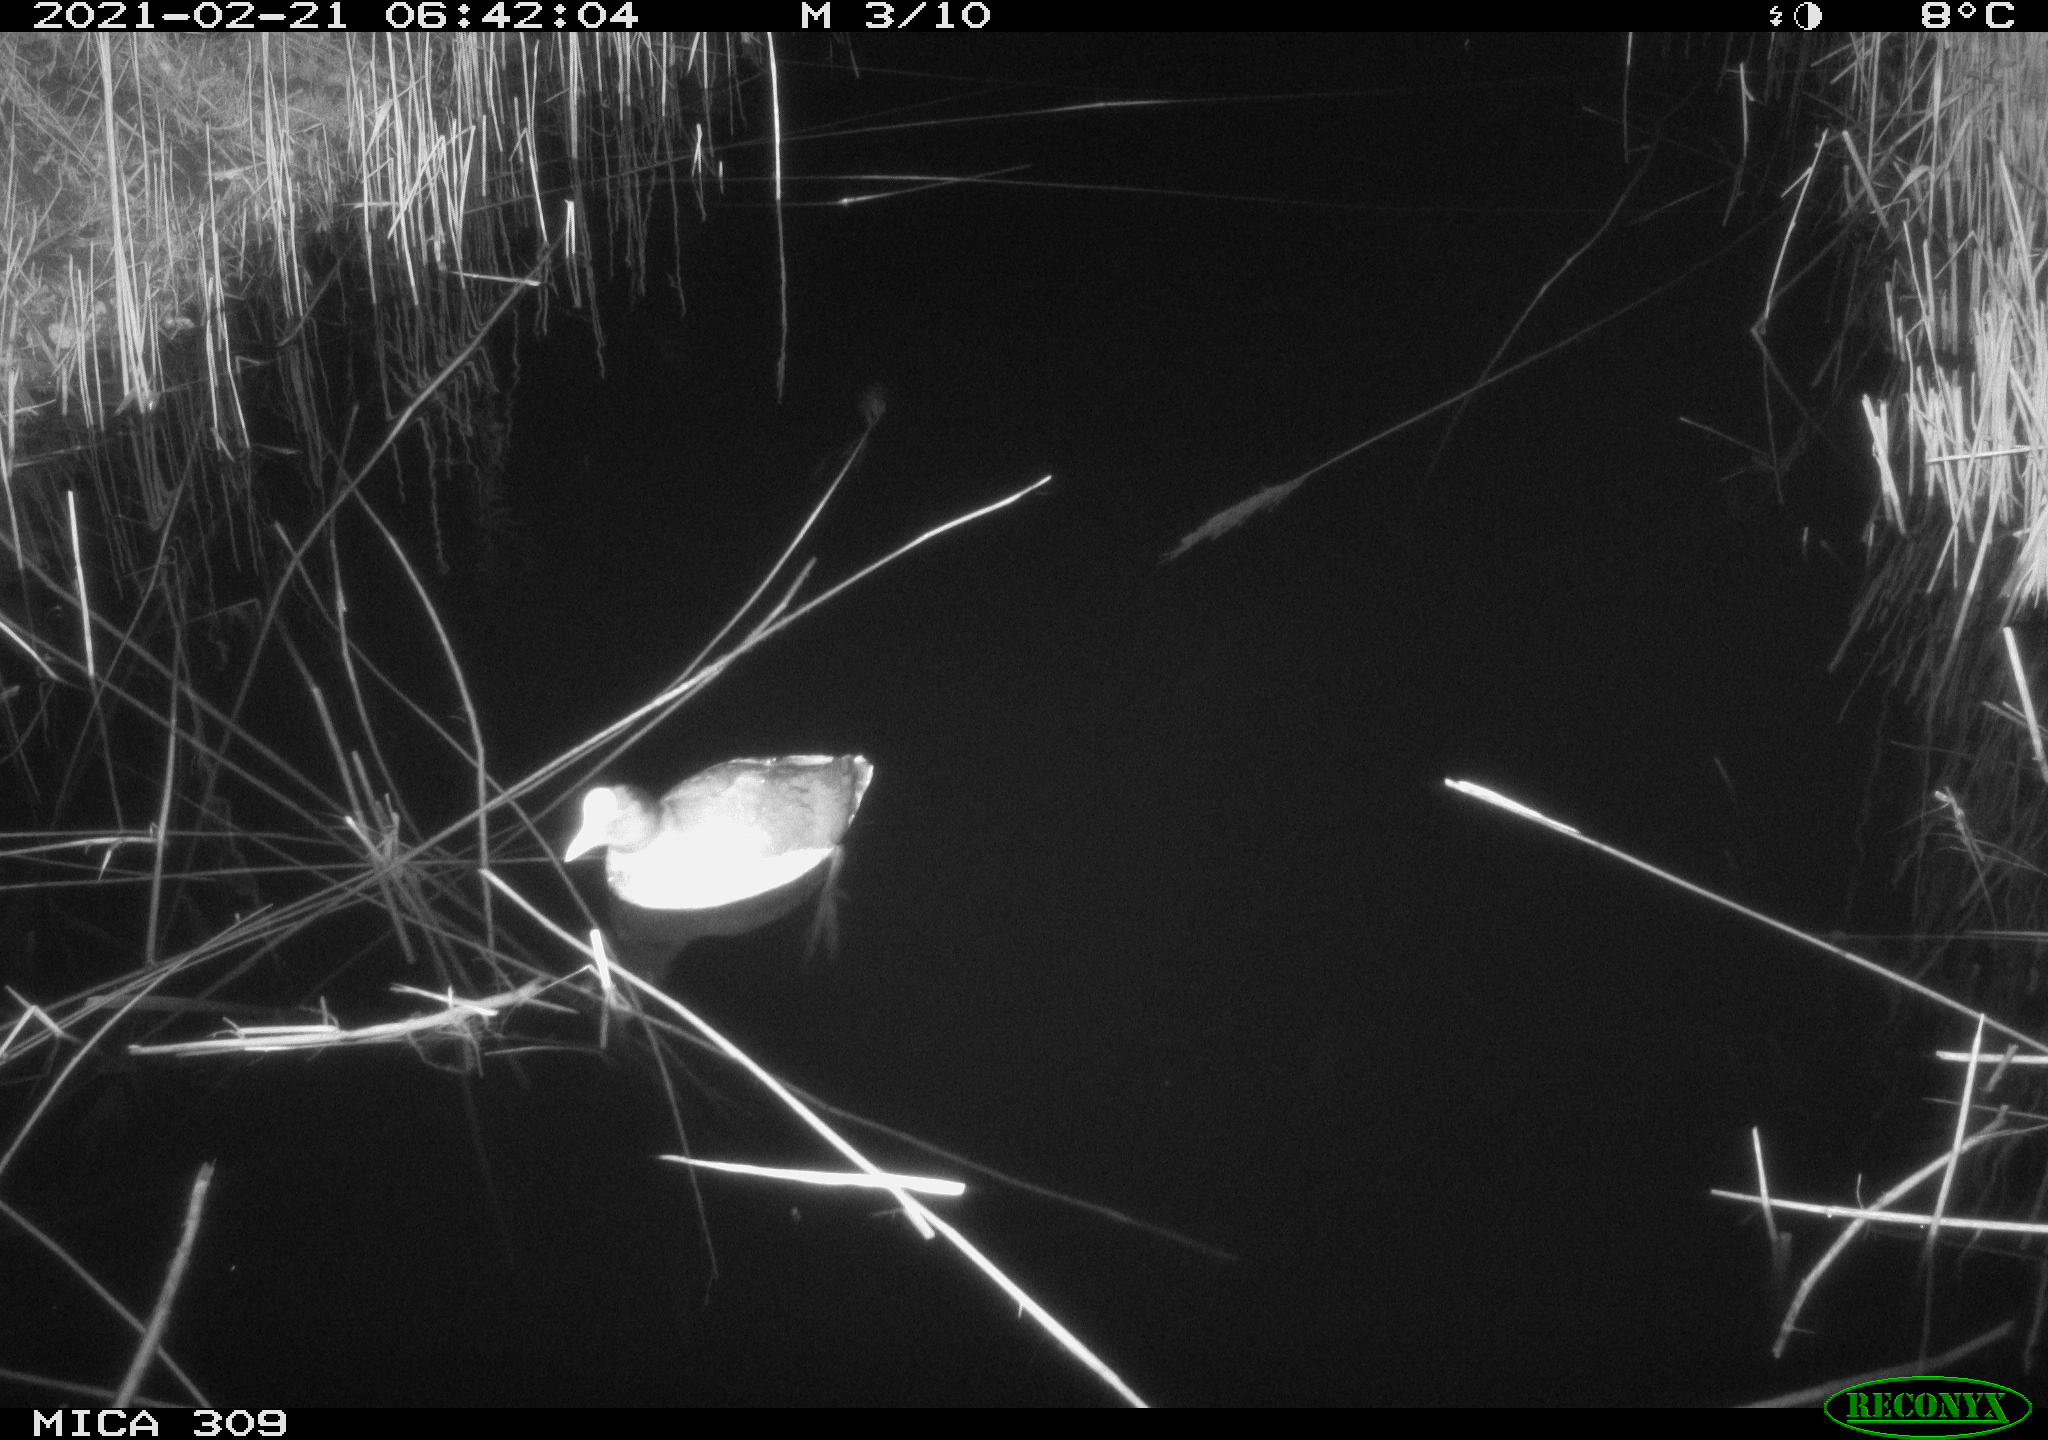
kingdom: Animalia
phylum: Chordata
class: Aves
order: Gruiformes
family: Rallidae
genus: Fulica
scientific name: Fulica atra
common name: Eurasian coot
